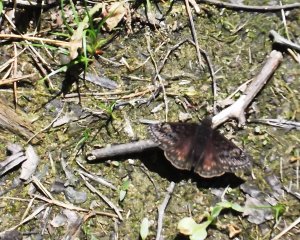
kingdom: Animalia
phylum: Arthropoda
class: Insecta
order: Lepidoptera
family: Hesperiidae
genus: Gesta
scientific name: Gesta
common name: Juvenal's Duskywing
